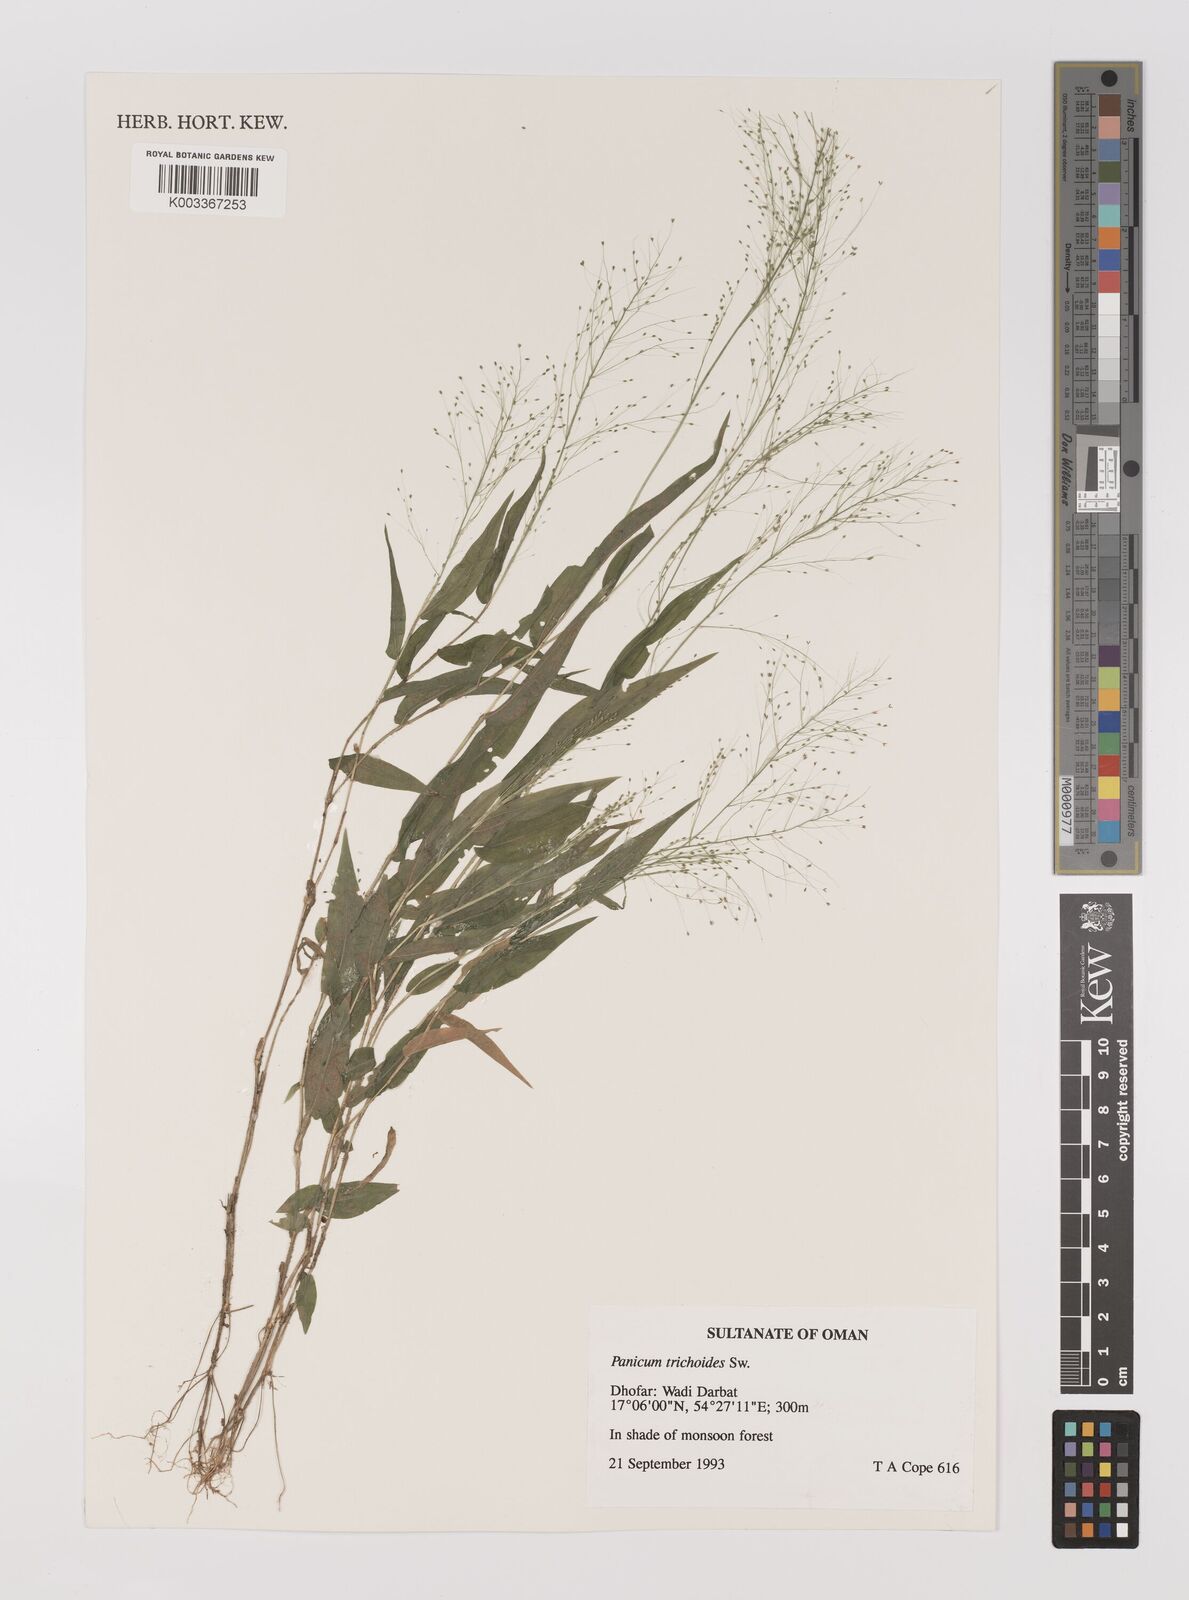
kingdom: Plantae
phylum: Tracheophyta
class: Liliopsida
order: Poales
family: Poaceae
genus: Panicum
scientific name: Panicum trichoides
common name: Tickle grass
